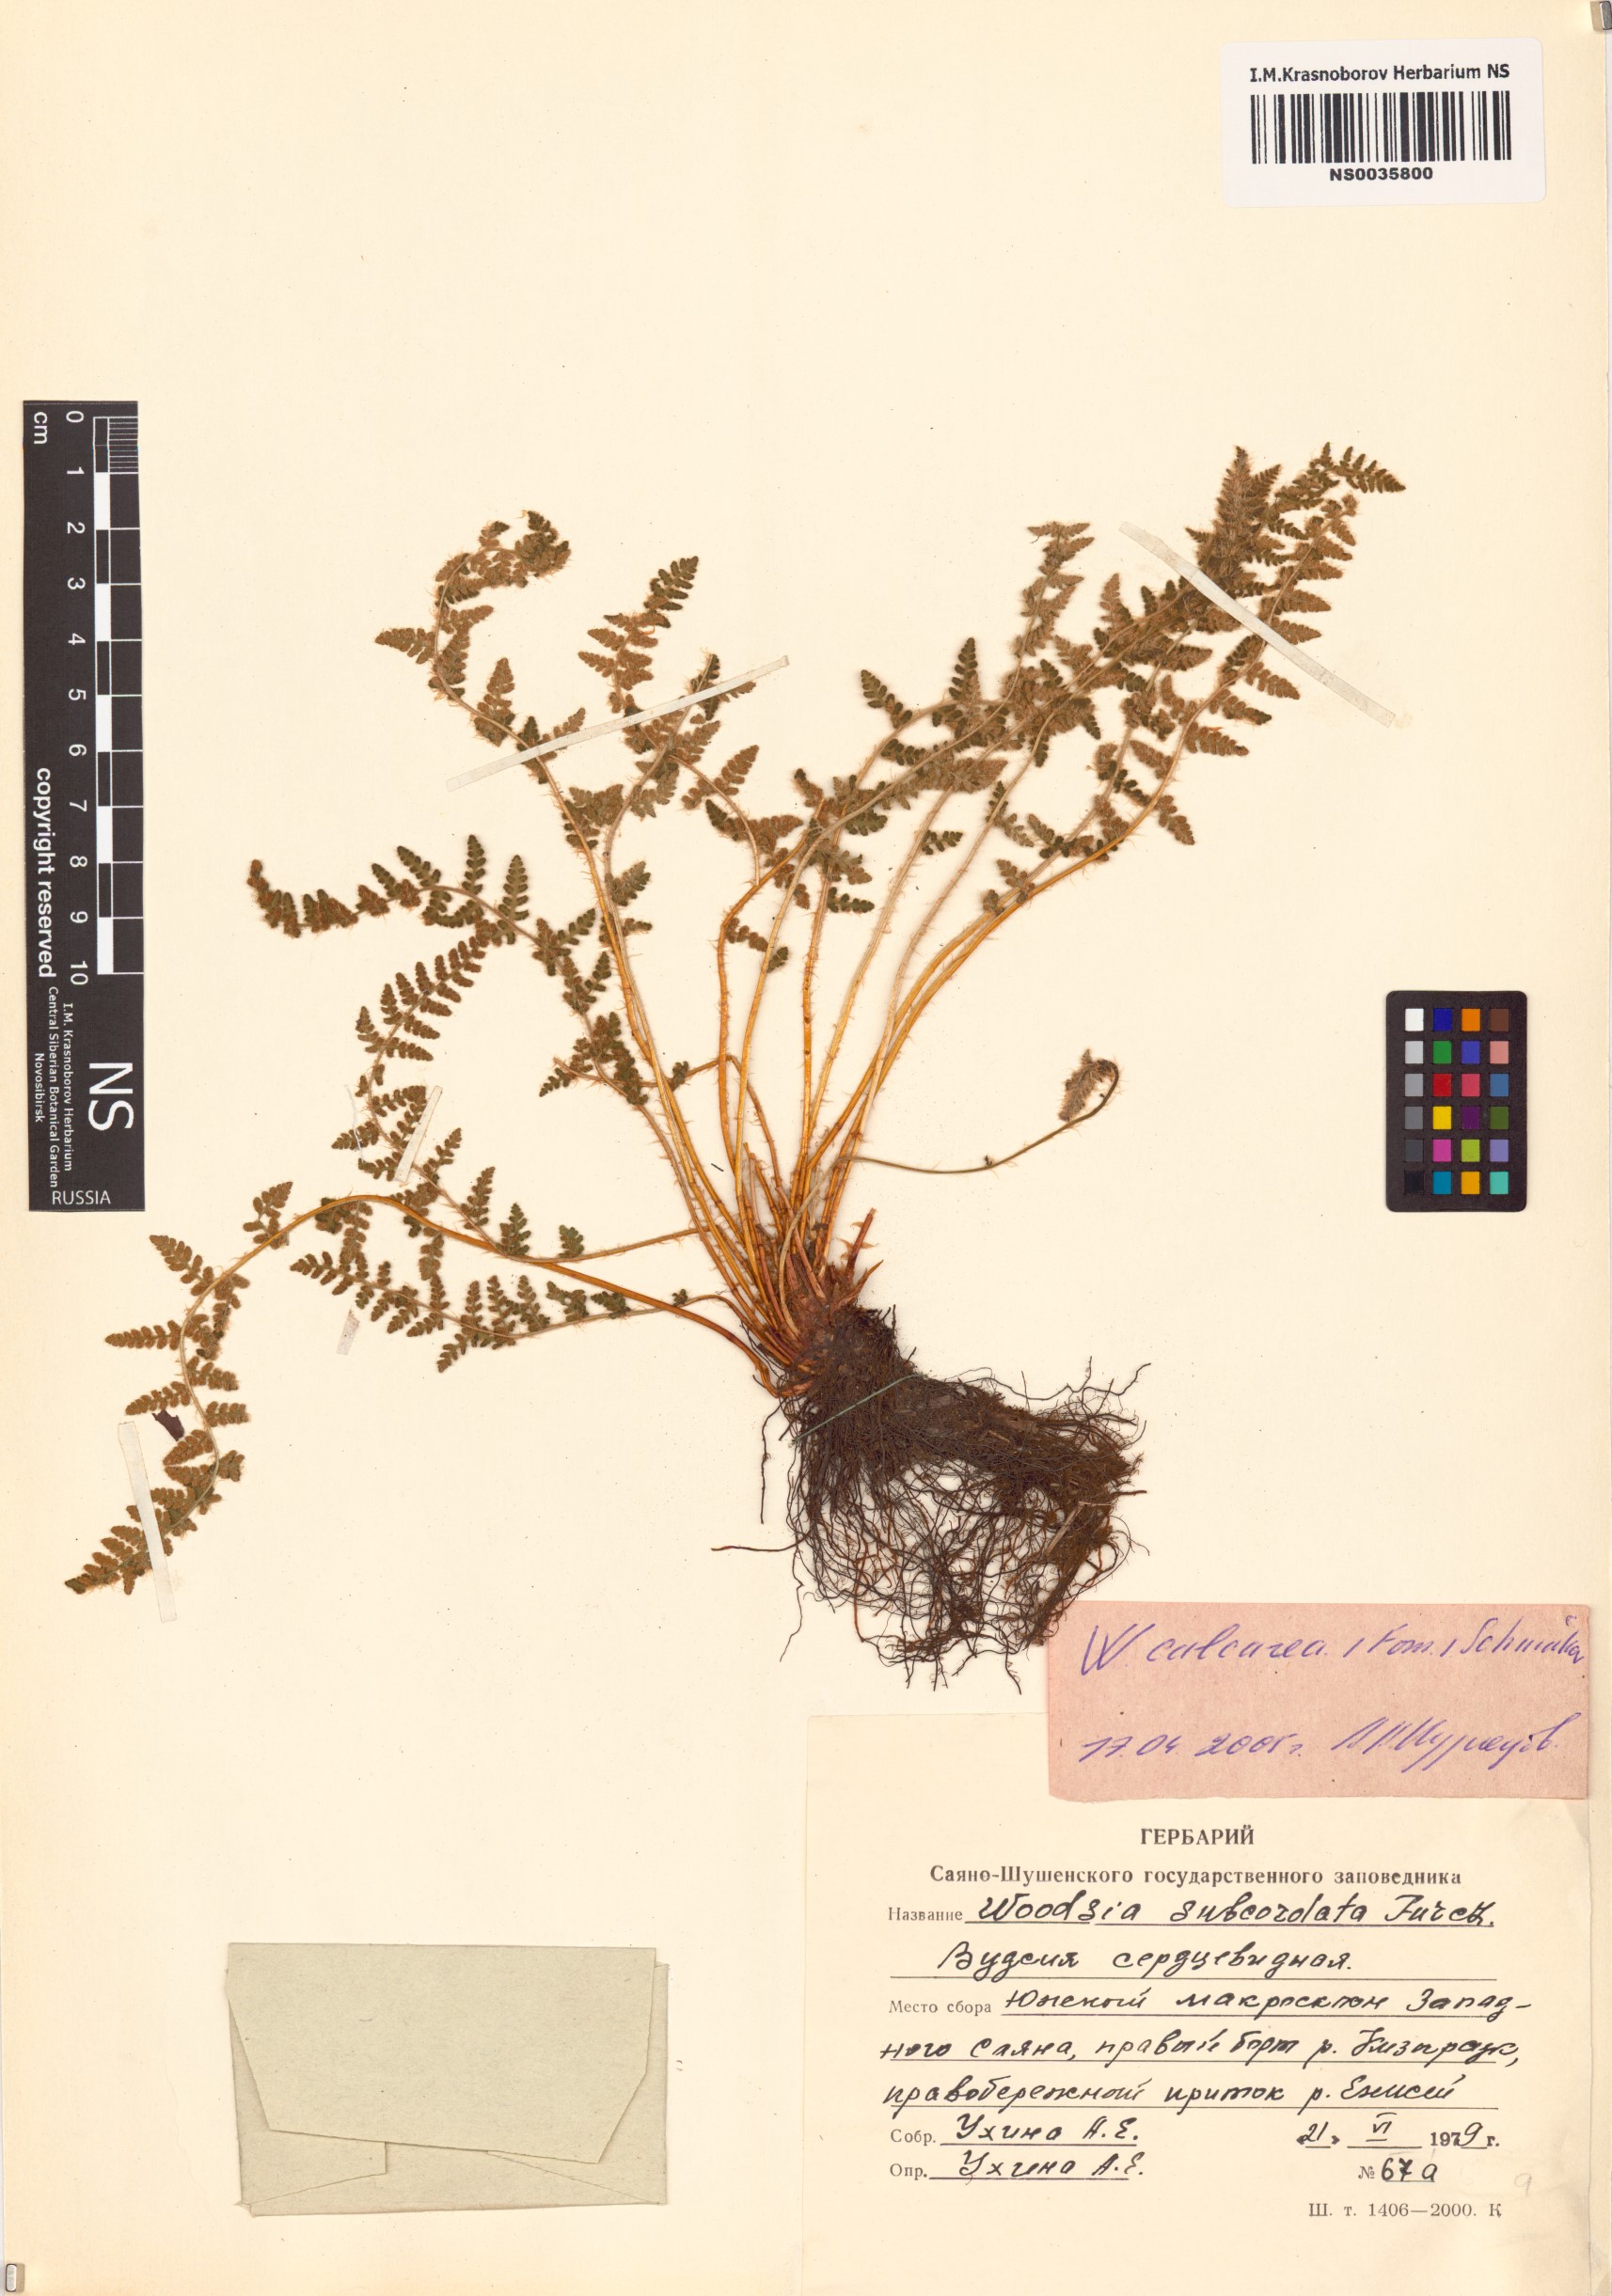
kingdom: Plantae
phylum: Tracheophyta
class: Polypodiopsida
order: Polypodiales
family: Woodsiaceae
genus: Woodsia
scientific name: Woodsia calcarea
